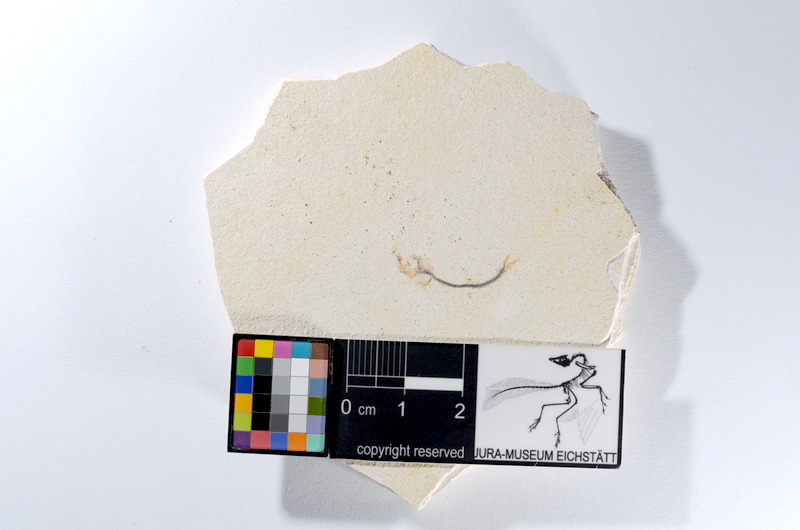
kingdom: Animalia
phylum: Chordata
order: Salmoniformes
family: Orthogonikleithridae
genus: Orthogonikleithrus
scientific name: Orthogonikleithrus hoelli
